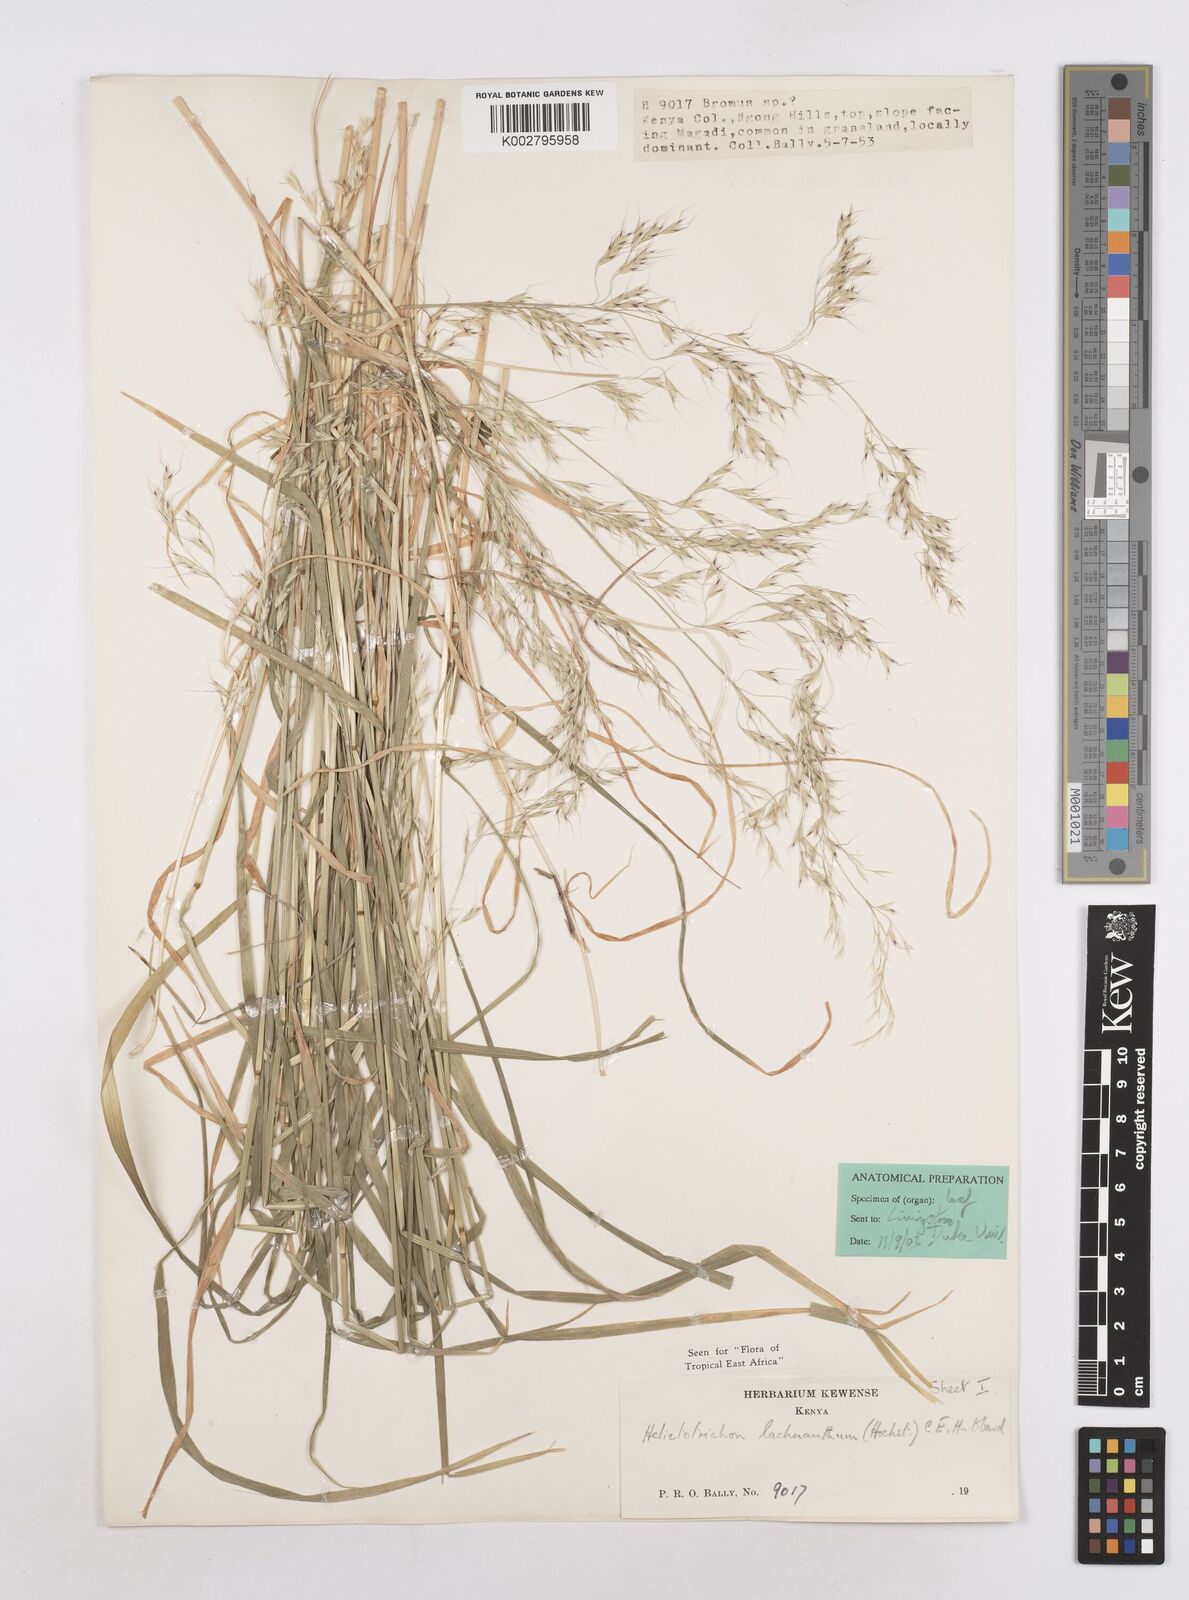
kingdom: Plantae
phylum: Tracheophyta
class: Liliopsida
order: Poales
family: Poaceae
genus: Trisetopsis
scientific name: Trisetopsis lachnantha
